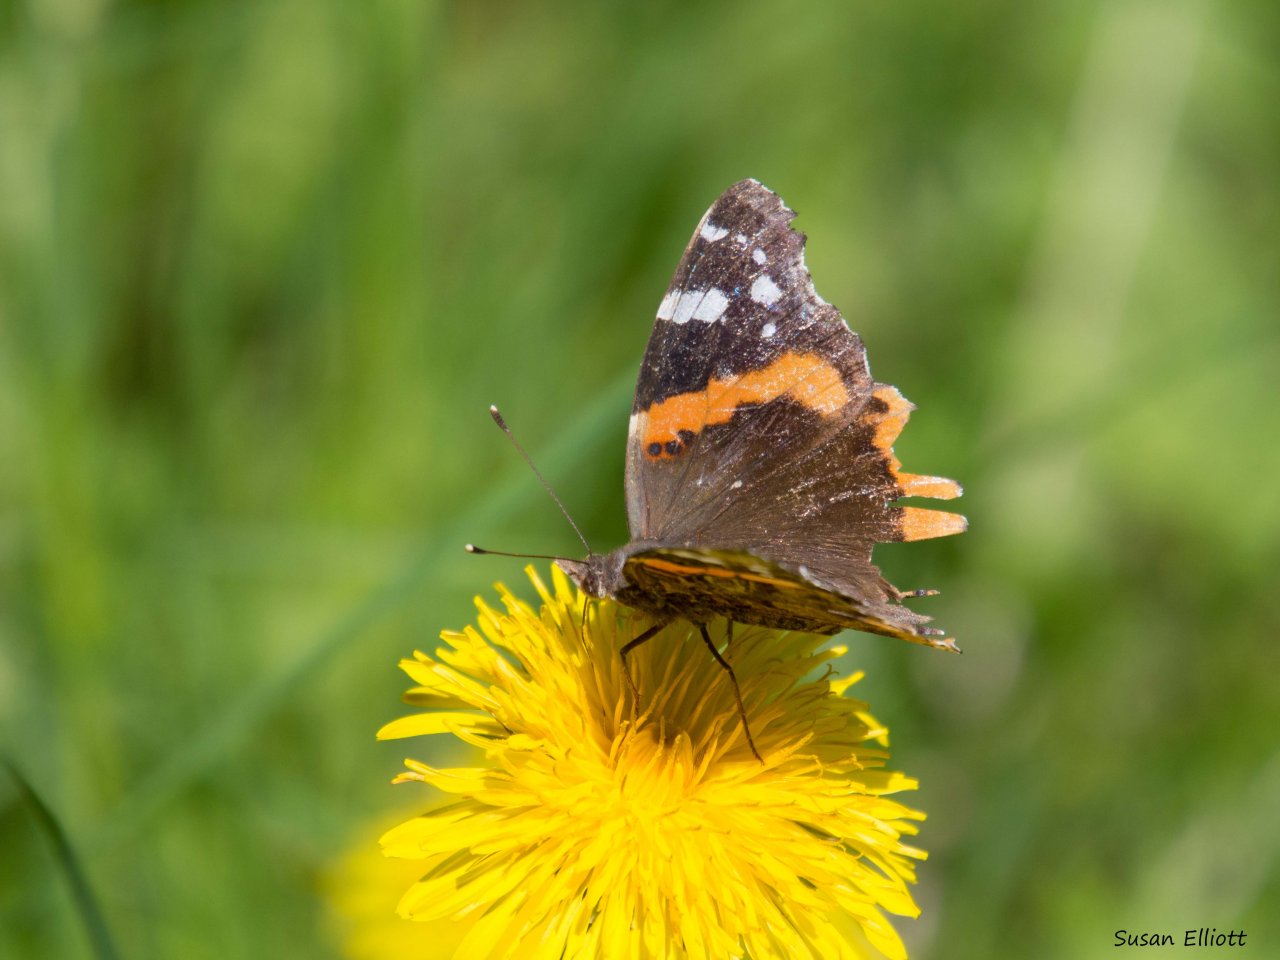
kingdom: Animalia
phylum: Arthropoda
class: Insecta
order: Lepidoptera
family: Nymphalidae
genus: Vanessa
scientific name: Vanessa atalanta
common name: Red Admiral
